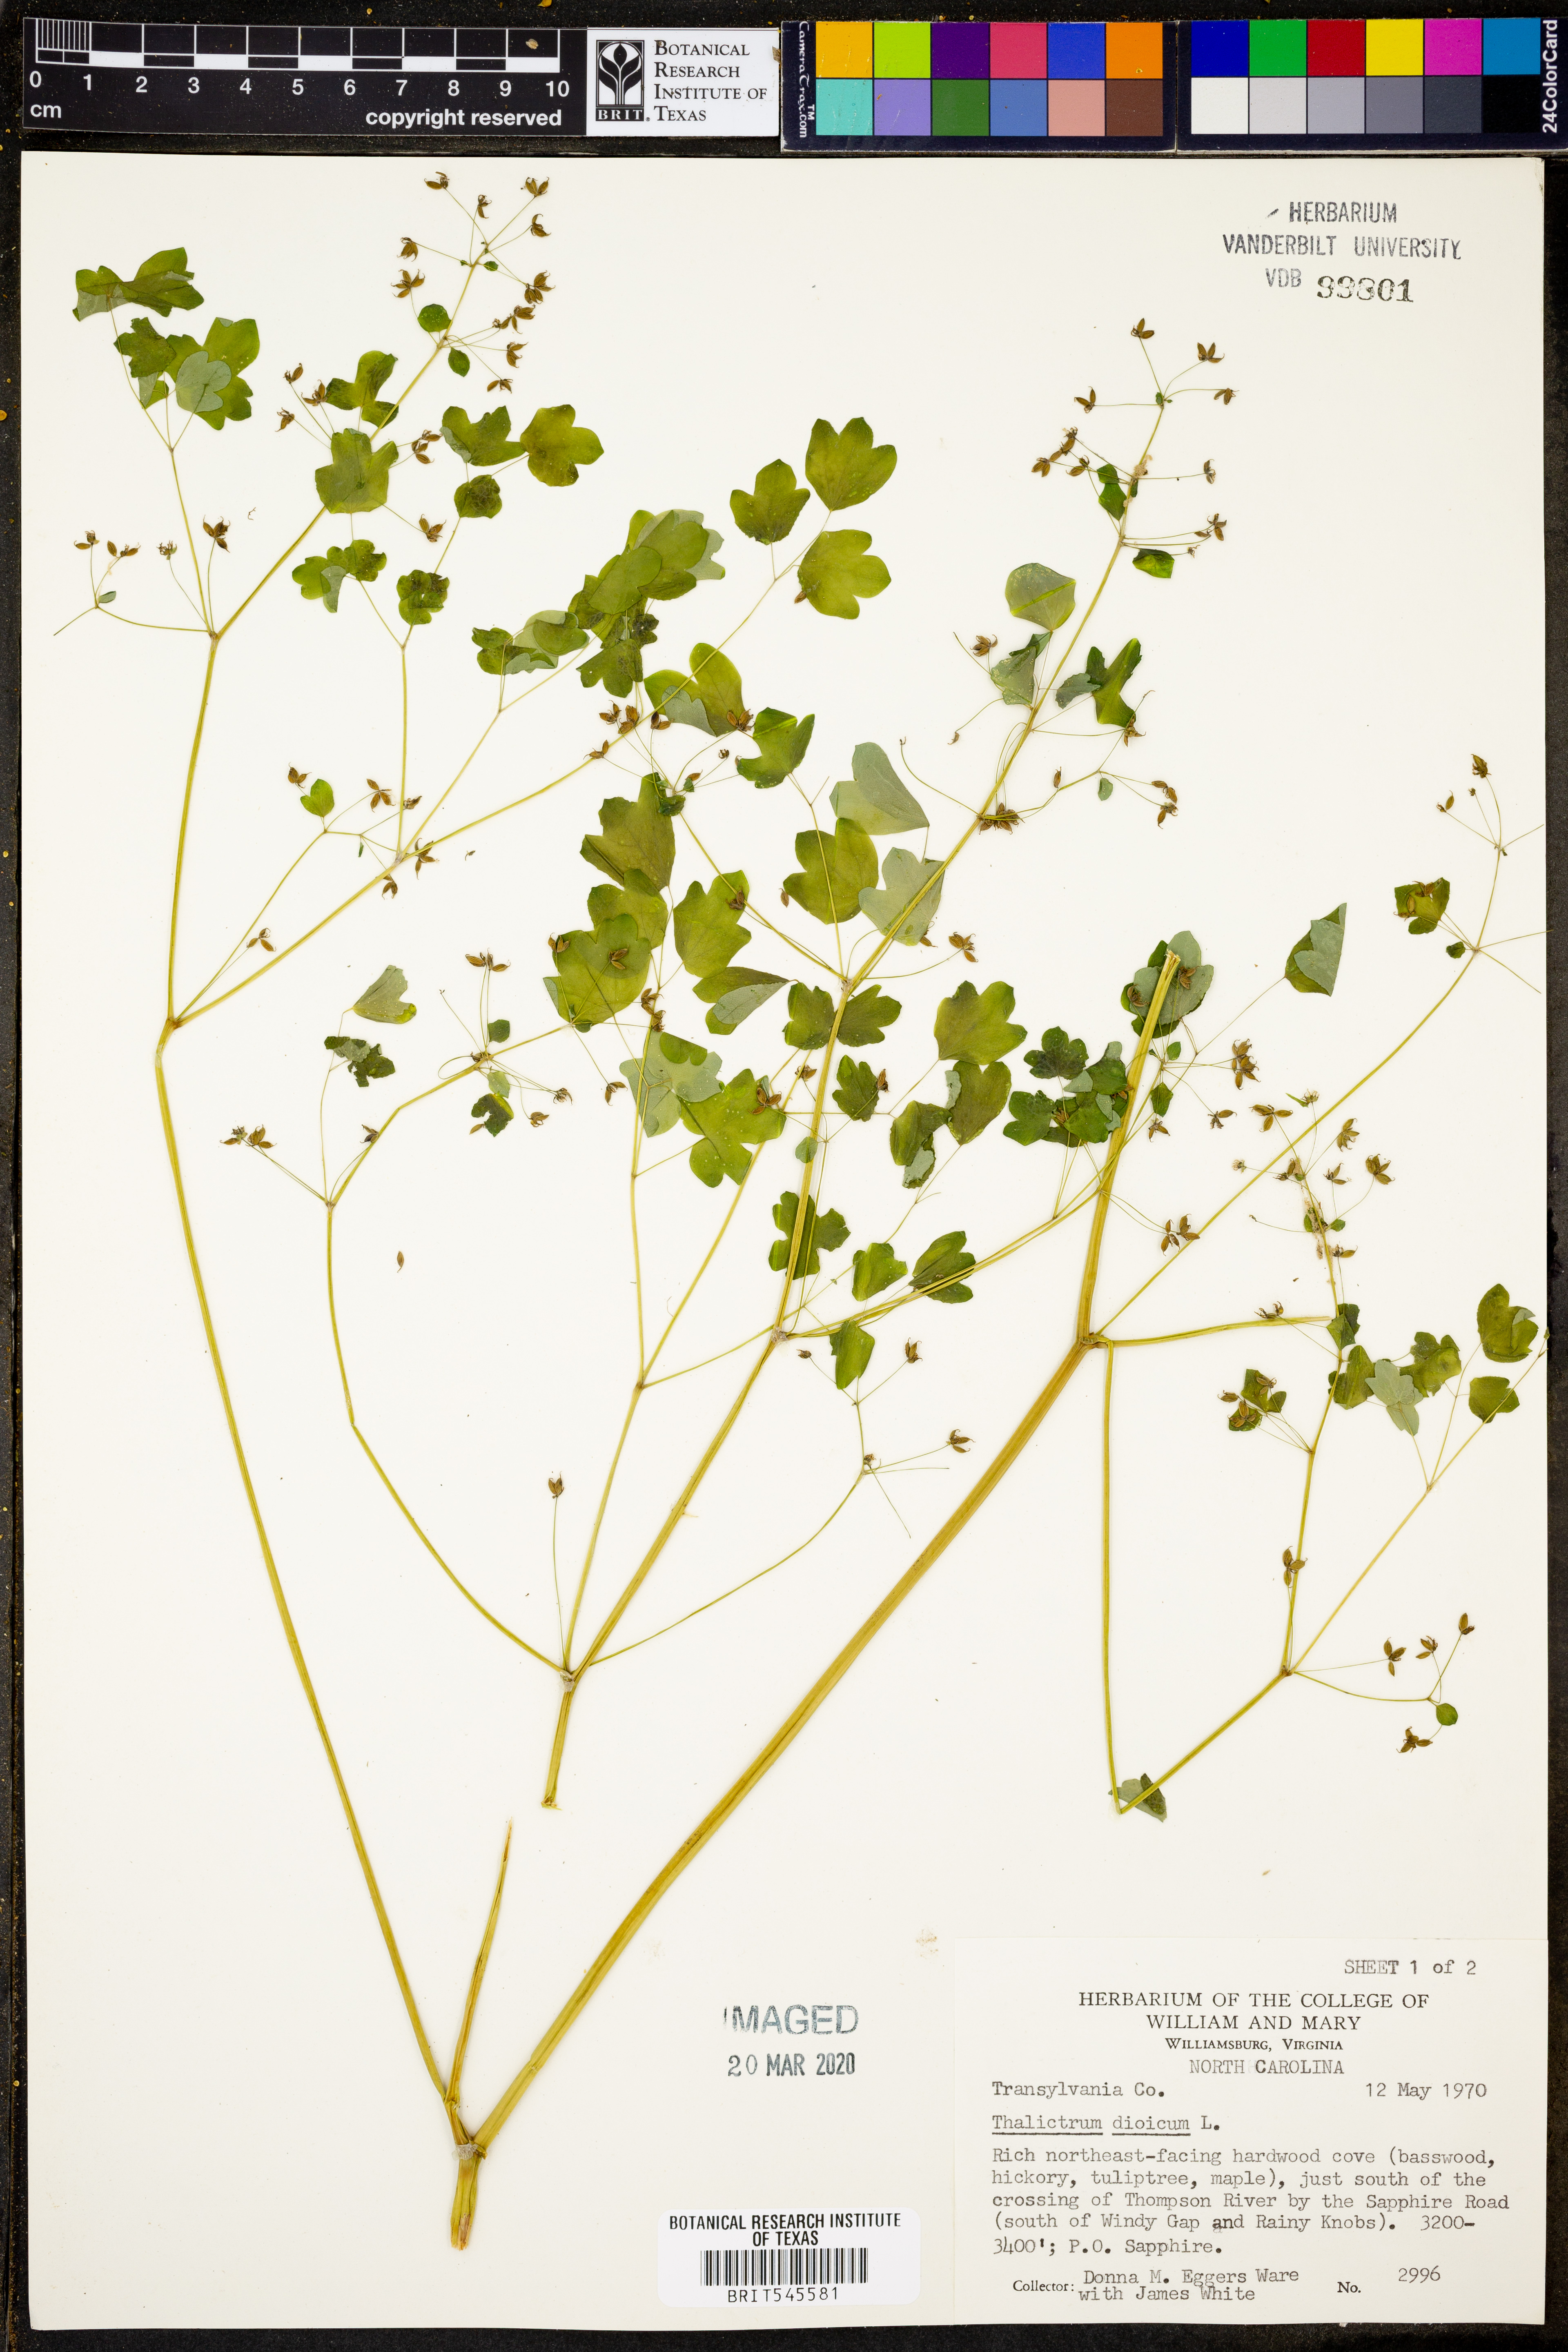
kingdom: Plantae
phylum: Tracheophyta
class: Magnoliopsida
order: Ranunculales
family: Ranunculaceae
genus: Thalictrum
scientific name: Thalictrum dioicum
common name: Early meadow-rue
